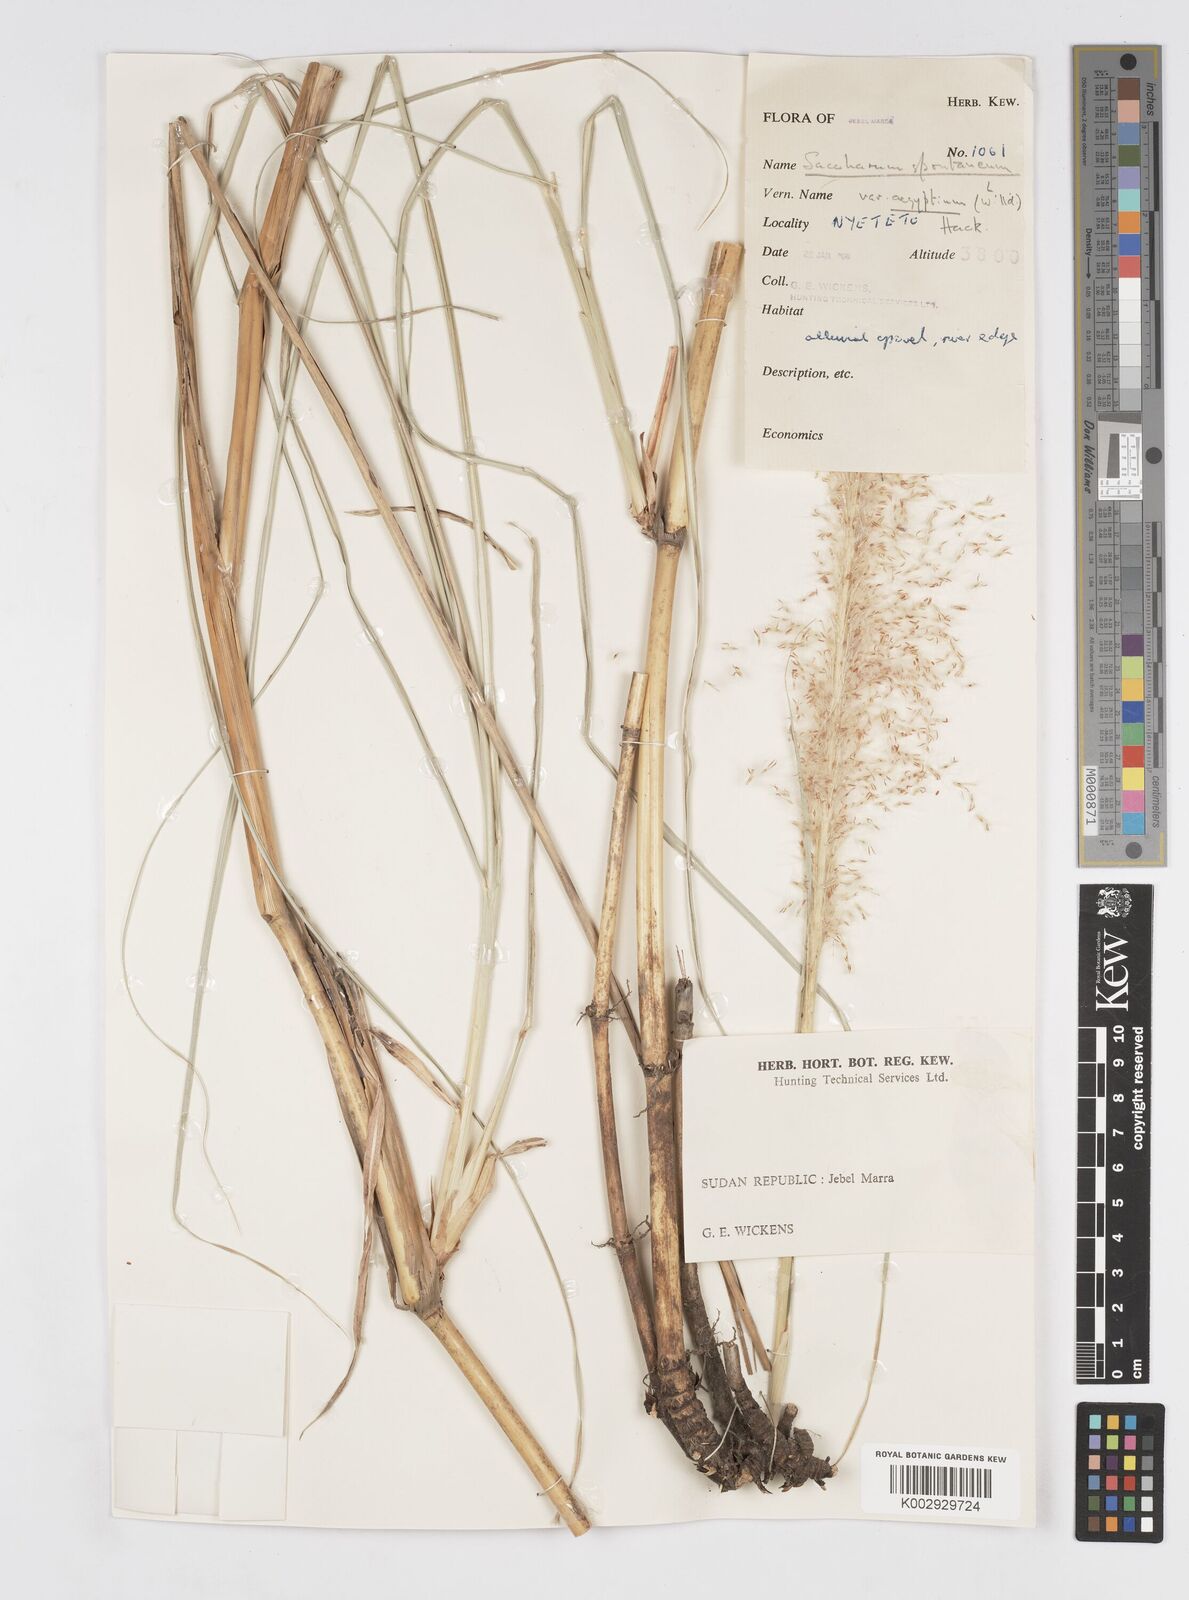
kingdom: Plantae
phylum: Tracheophyta
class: Liliopsida
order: Poales
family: Poaceae
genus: Saccharum
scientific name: Saccharum spontaneum
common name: Wild sugarcane
